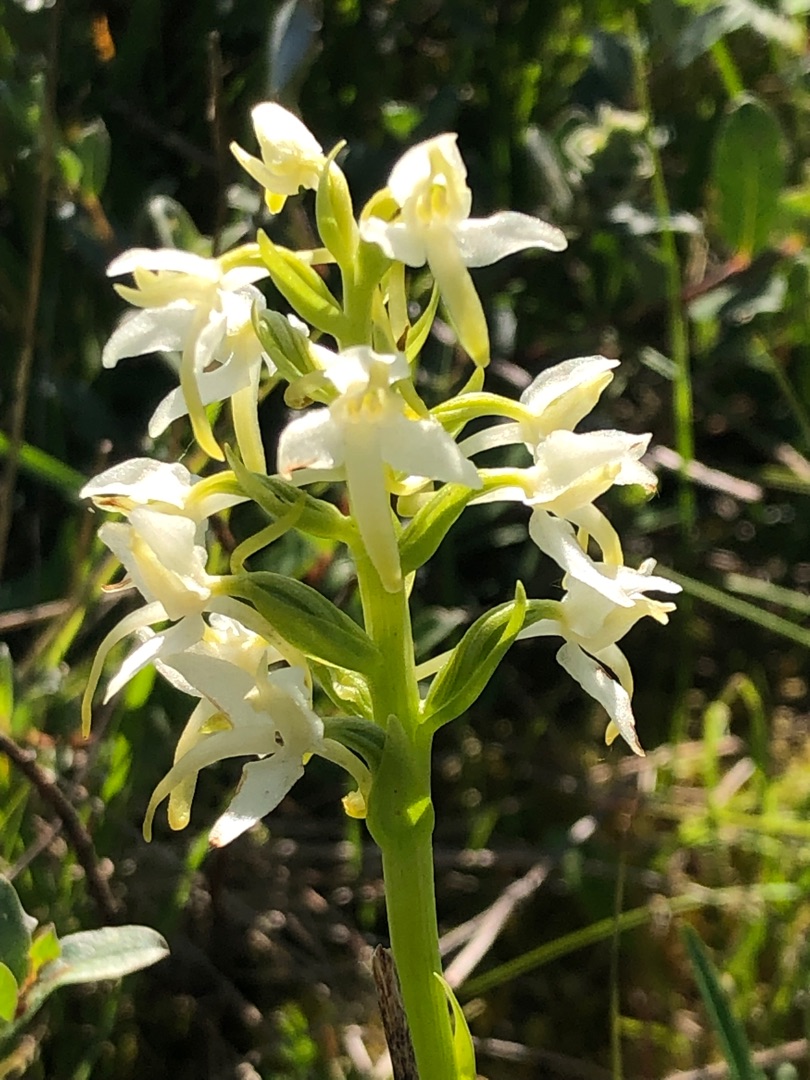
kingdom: Plantae
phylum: Tracheophyta
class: Liliopsida
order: Asparagales
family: Orchidaceae
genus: Platanthera
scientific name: Platanthera bifolia
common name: Bakke-gøgelilje
